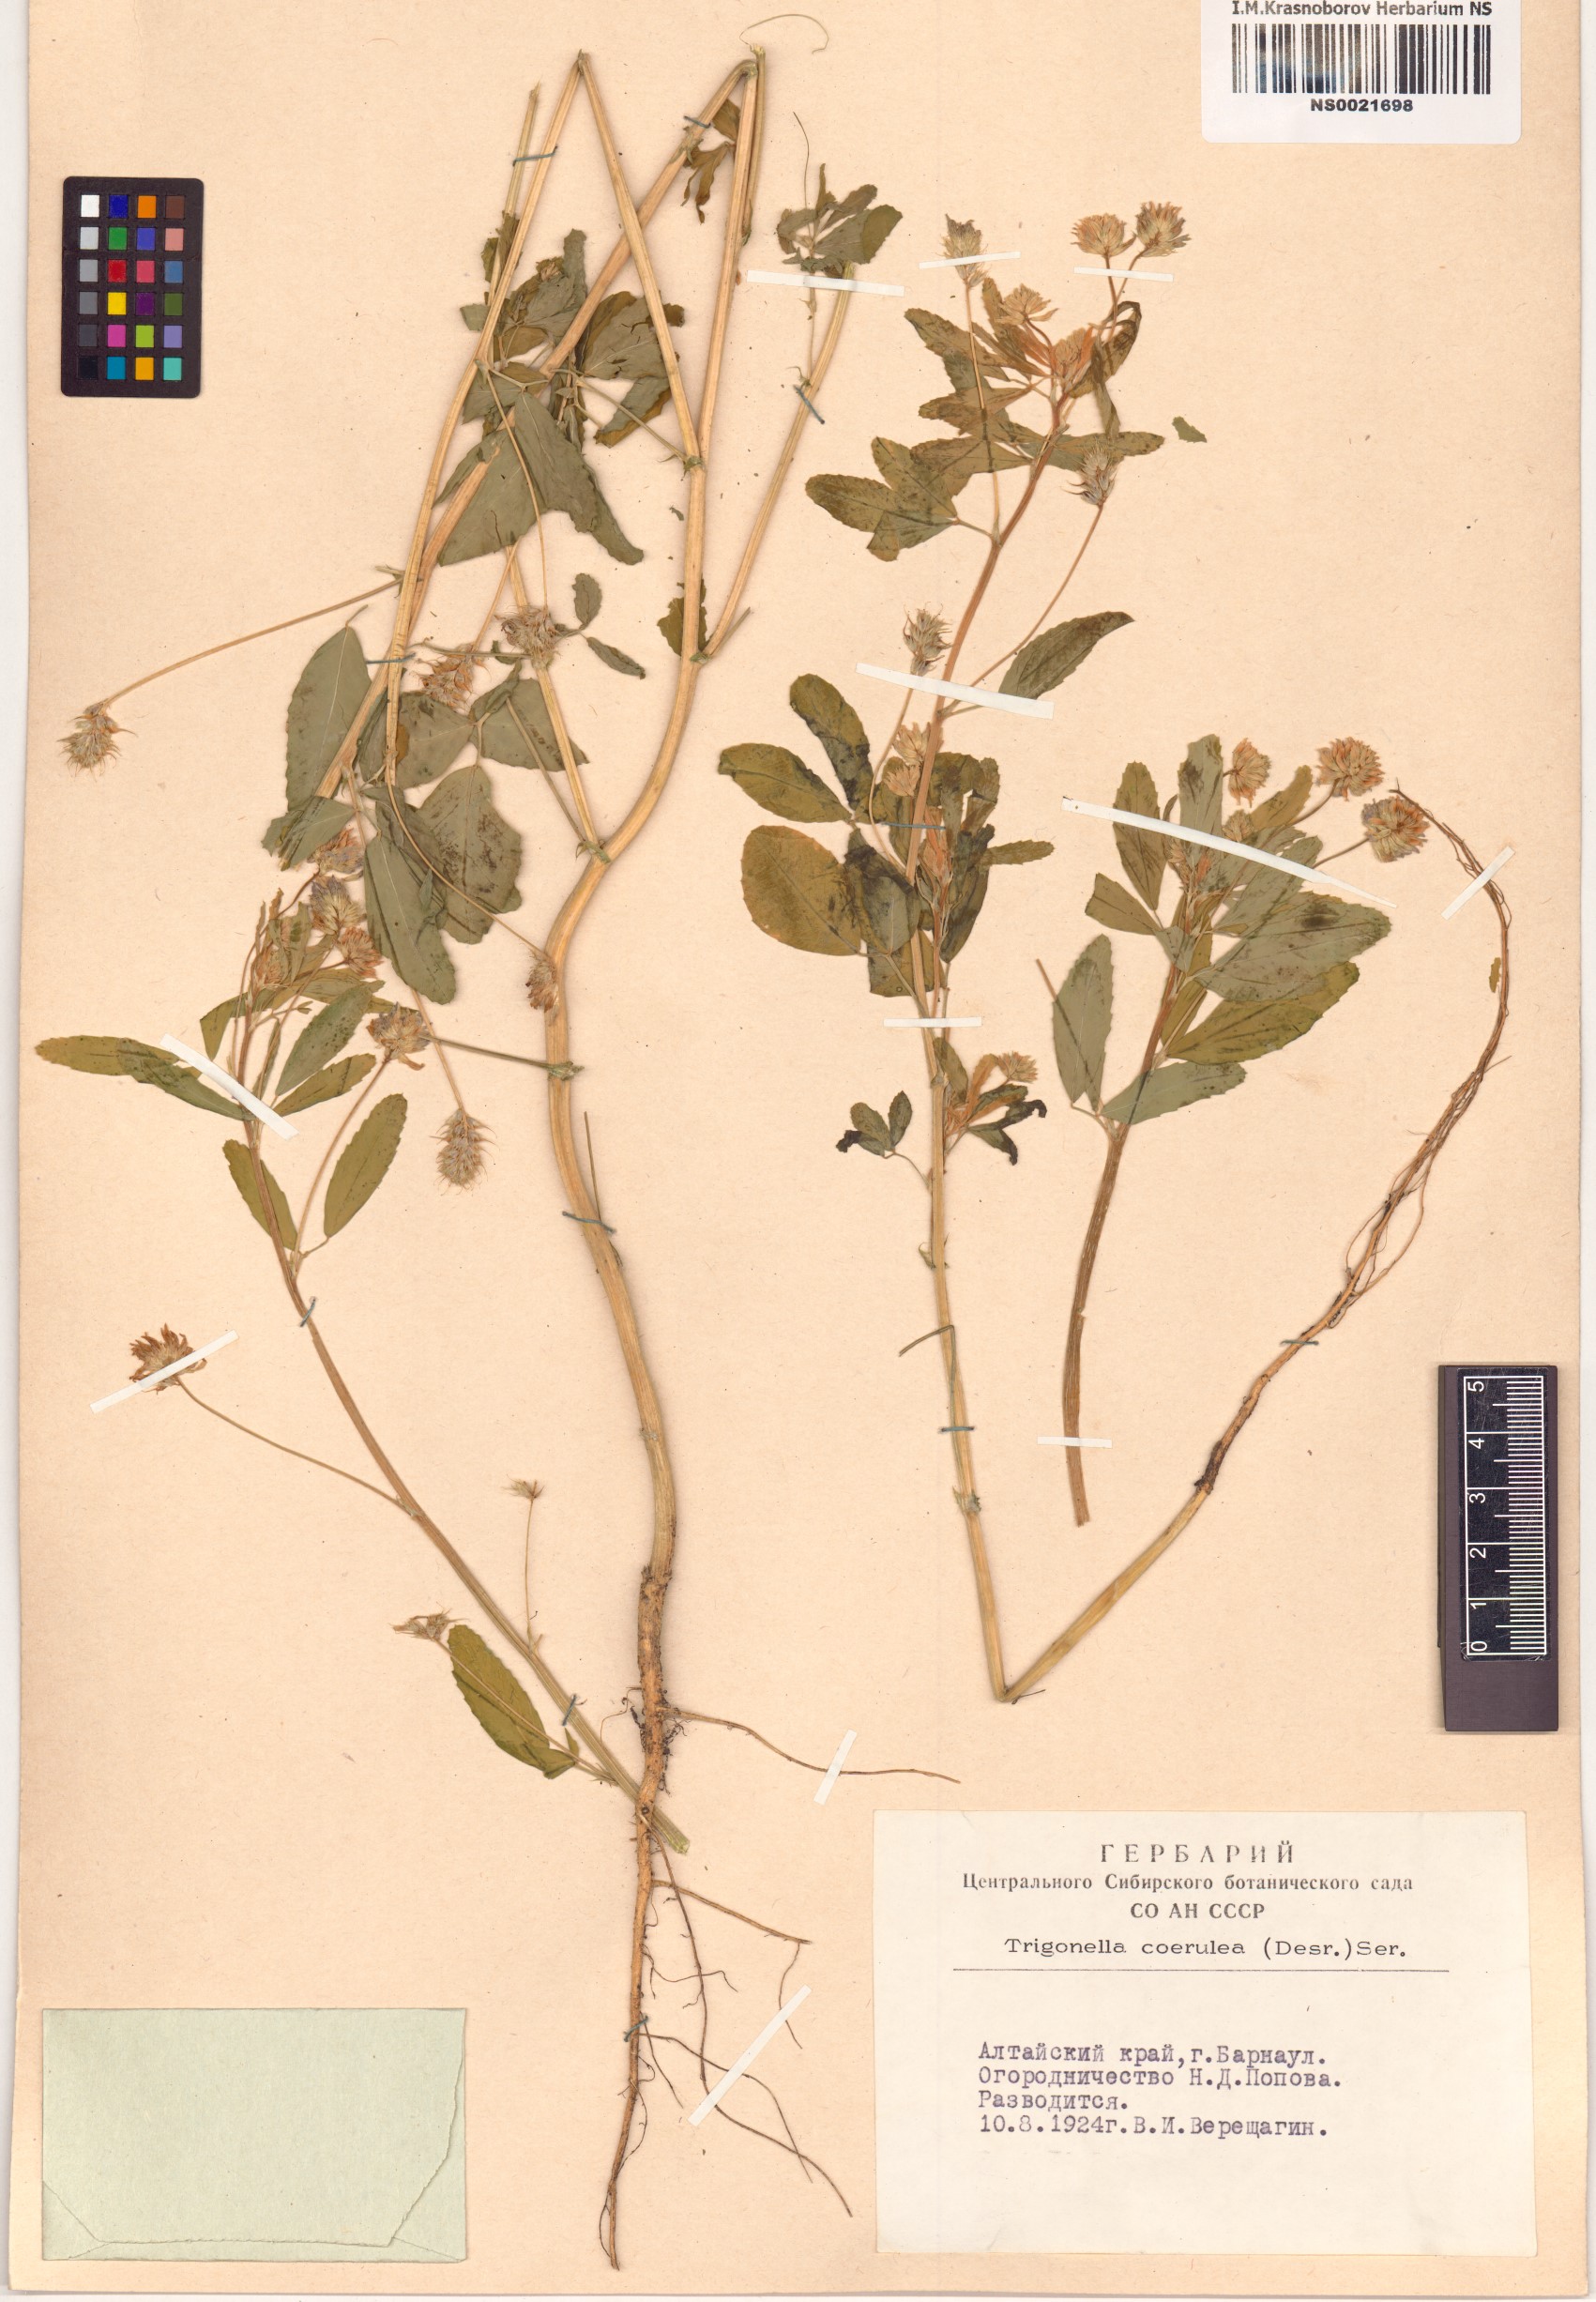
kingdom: Plantae
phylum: Tracheophyta
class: Magnoliopsida
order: Fabales
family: Fabaceae
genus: Trigonella
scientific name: Trigonella caerulea
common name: Blue fenugreek
